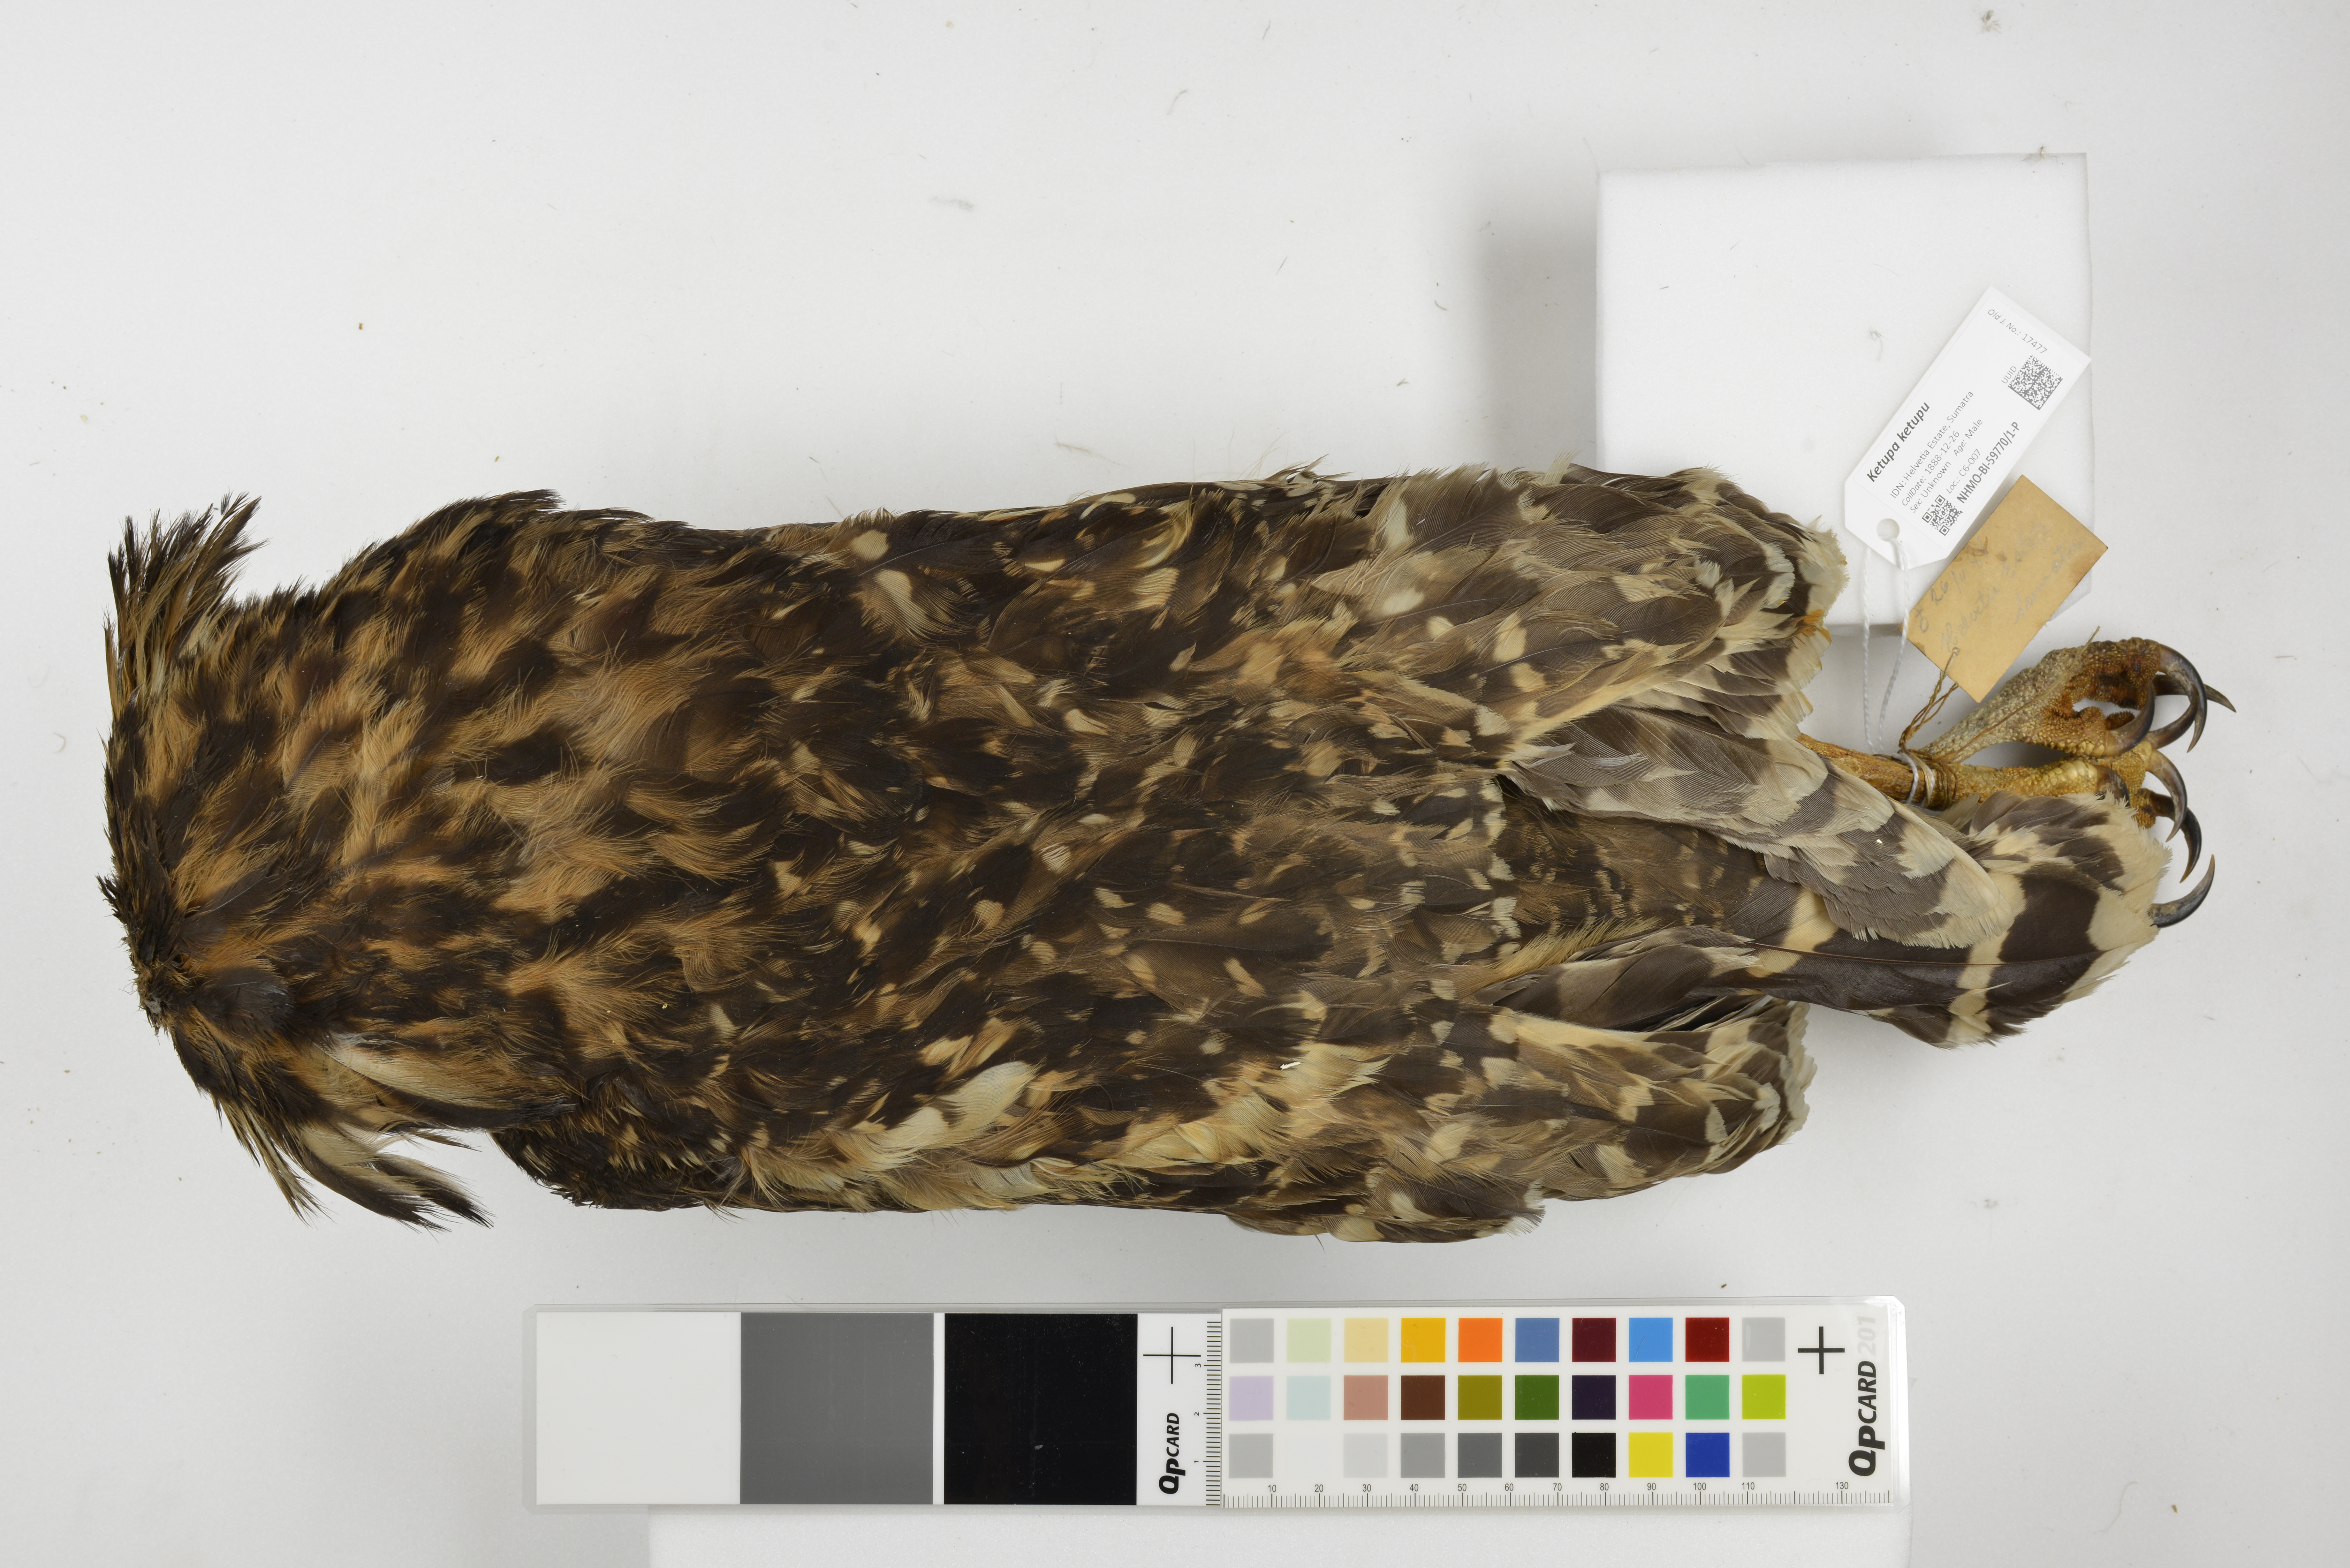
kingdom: Animalia
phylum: Chordata
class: Aves
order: Strigiformes
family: Strigidae
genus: Ketupa
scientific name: Ketupa ketupu
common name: Buffy fish-owl
